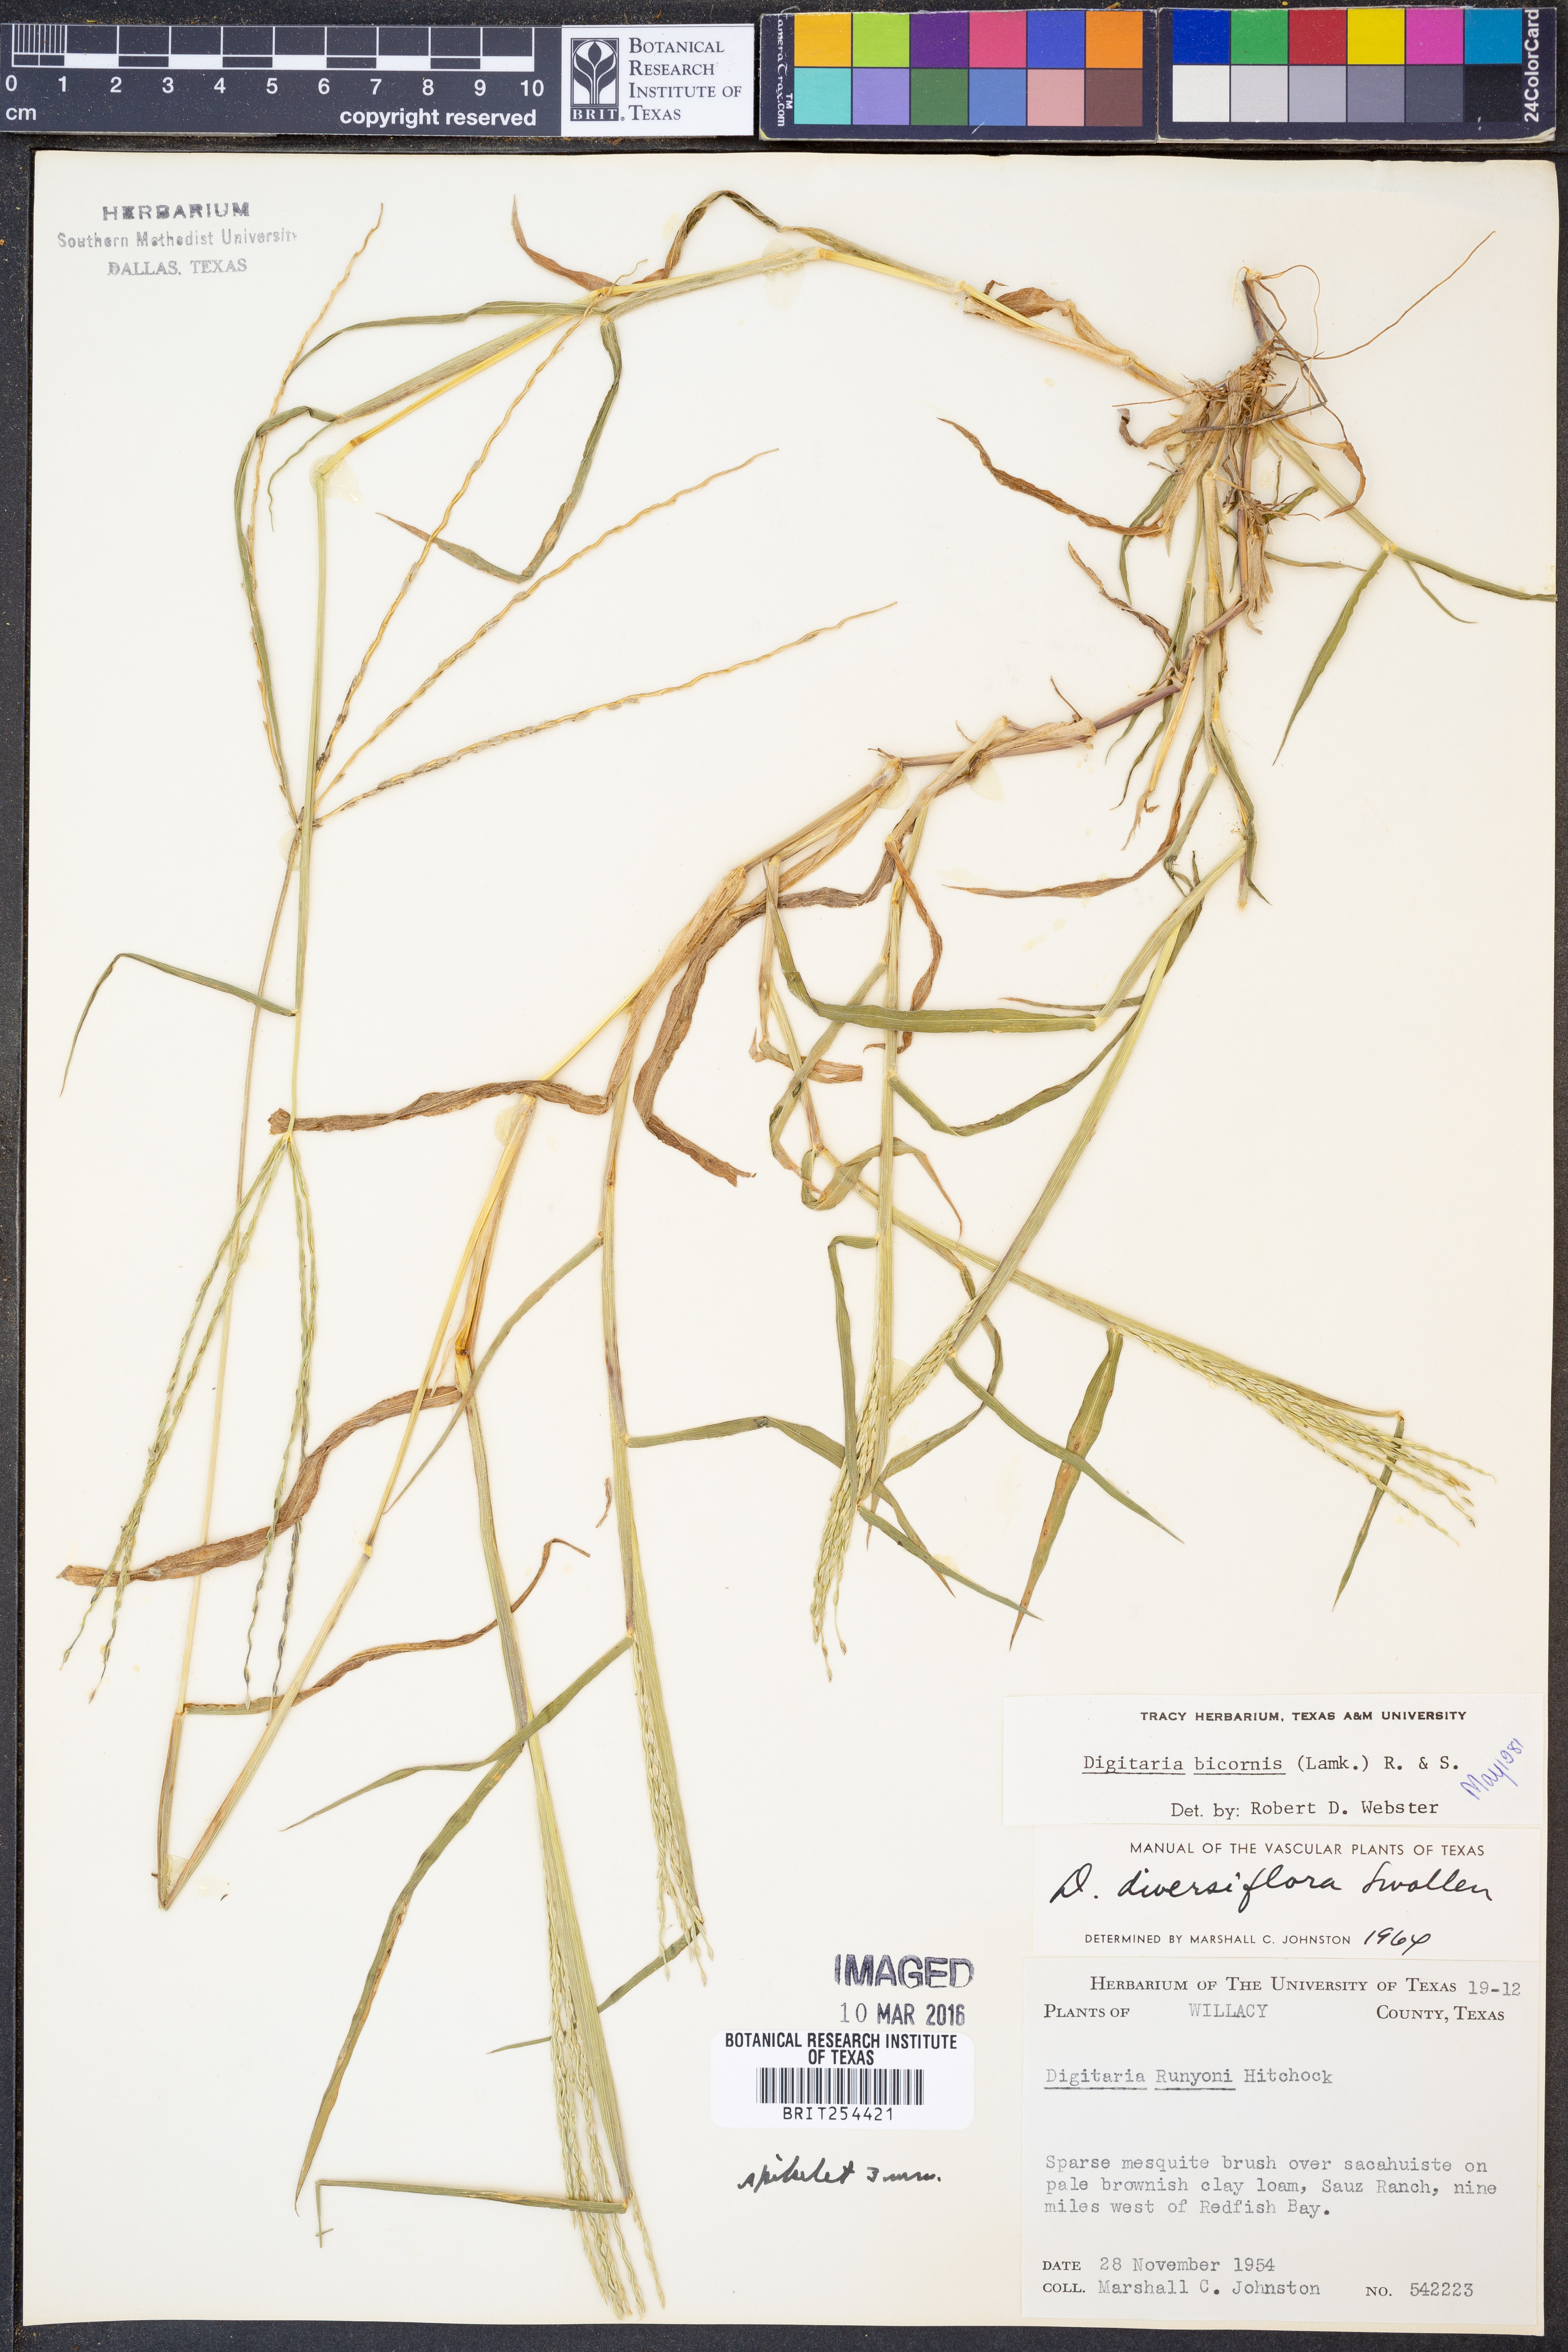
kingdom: Plantae
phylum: Tracheophyta
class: Liliopsida
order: Poales
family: Poaceae
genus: Digitaria
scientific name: Digitaria bicornis
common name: Asian crabgrass
